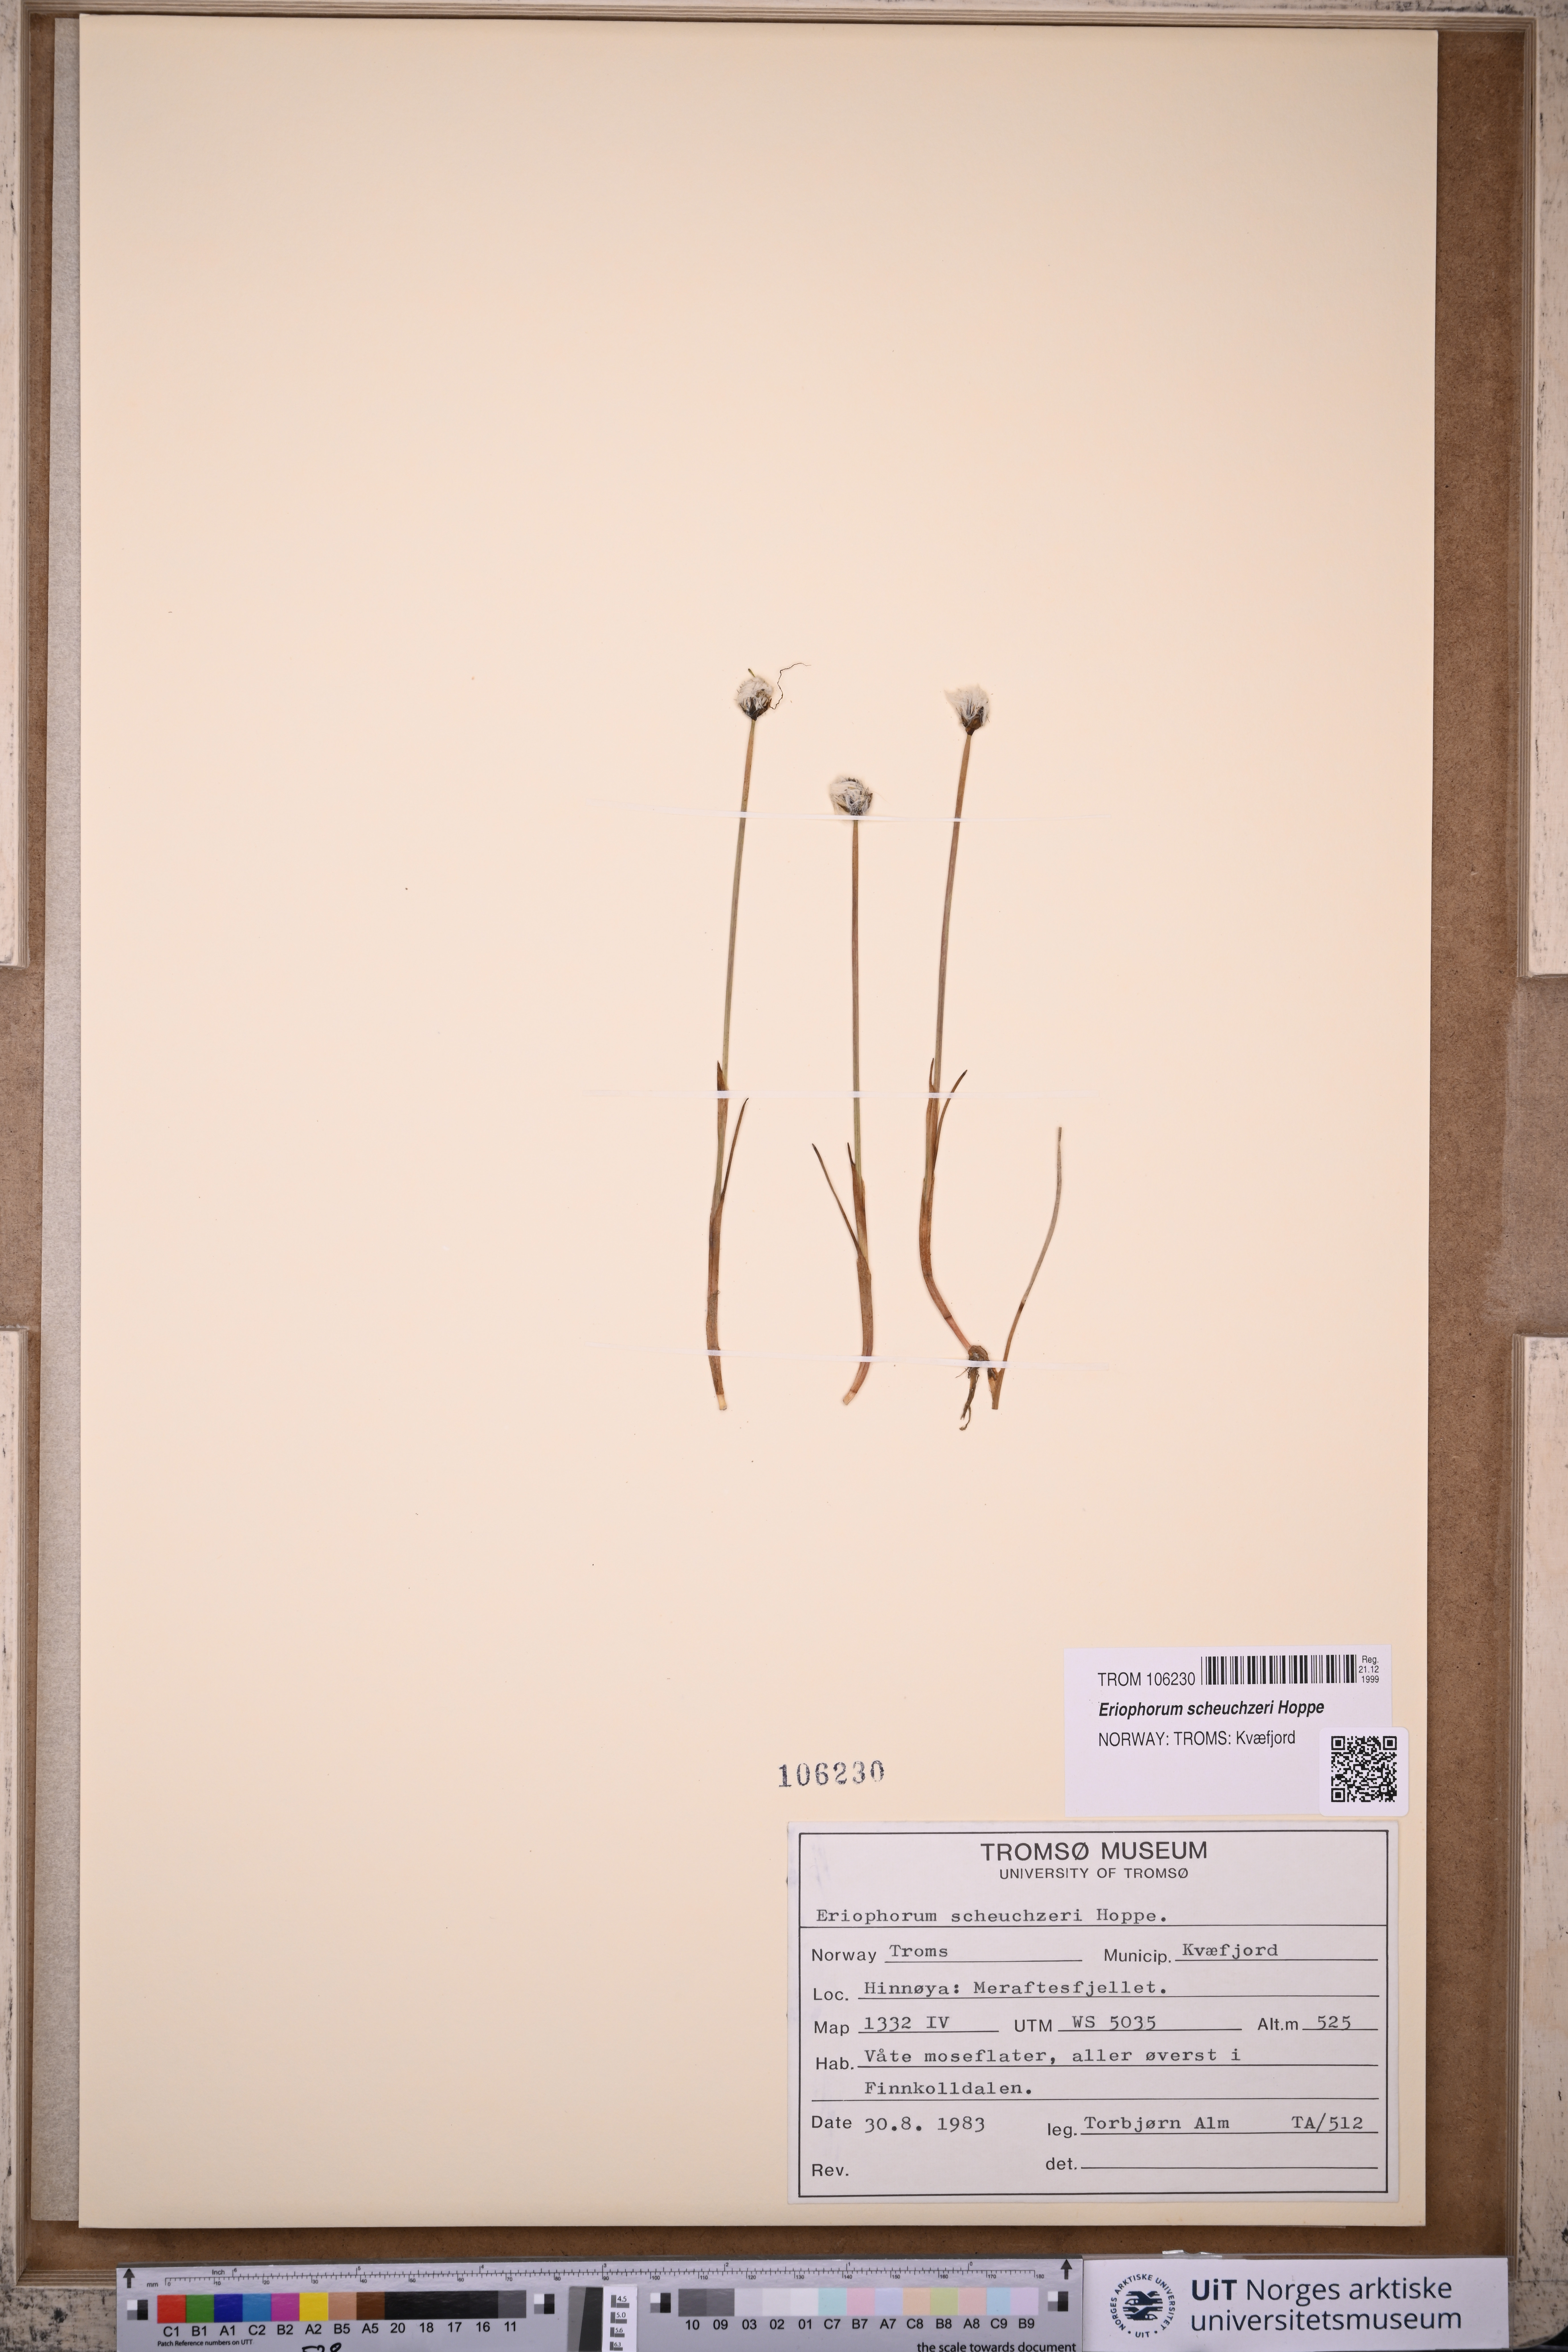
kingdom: Plantae
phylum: Tracheophyta
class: Liliopsida
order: Poales
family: Cyperaceae
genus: Eriophorum
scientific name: Eriophorum scheuchzeri
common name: Scheuchzer's cottongrass
